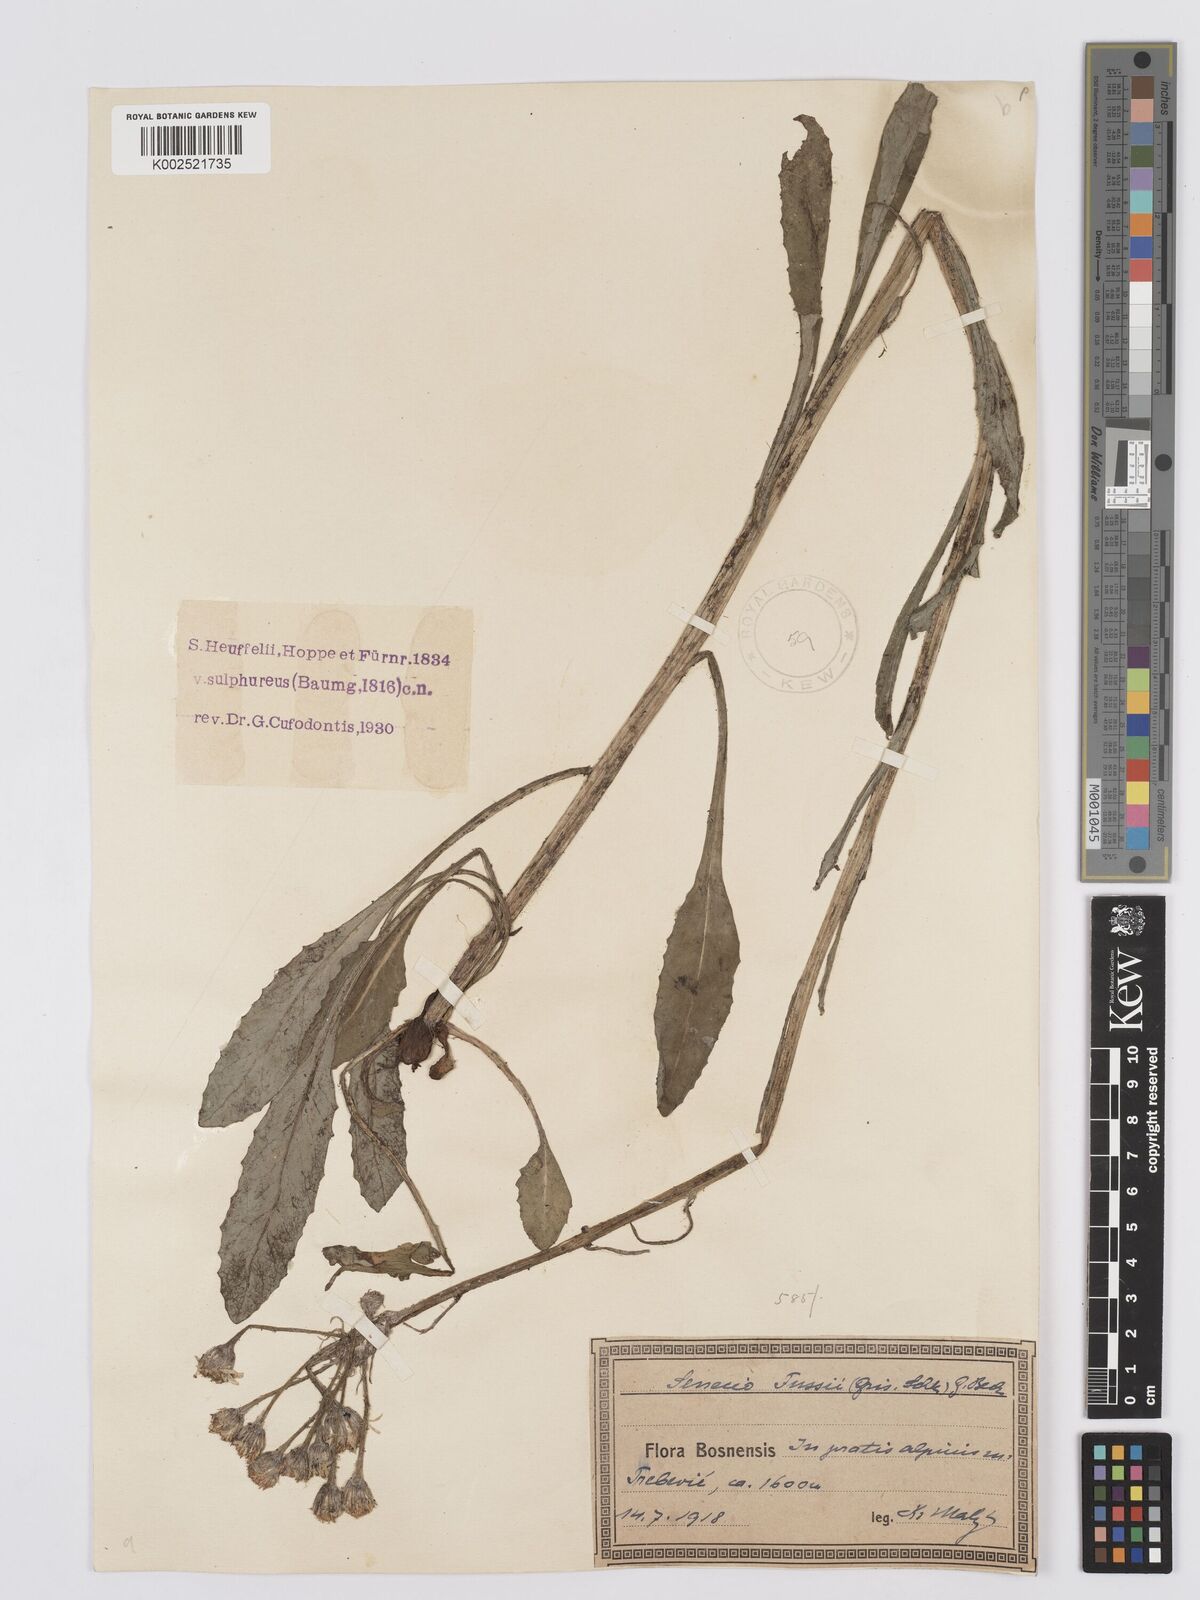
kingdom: Plantae
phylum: Tracheophyta
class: Magnoliopsida
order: Asterales
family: Asteraceae
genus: Tephroseris
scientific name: Tephroseris papposa
